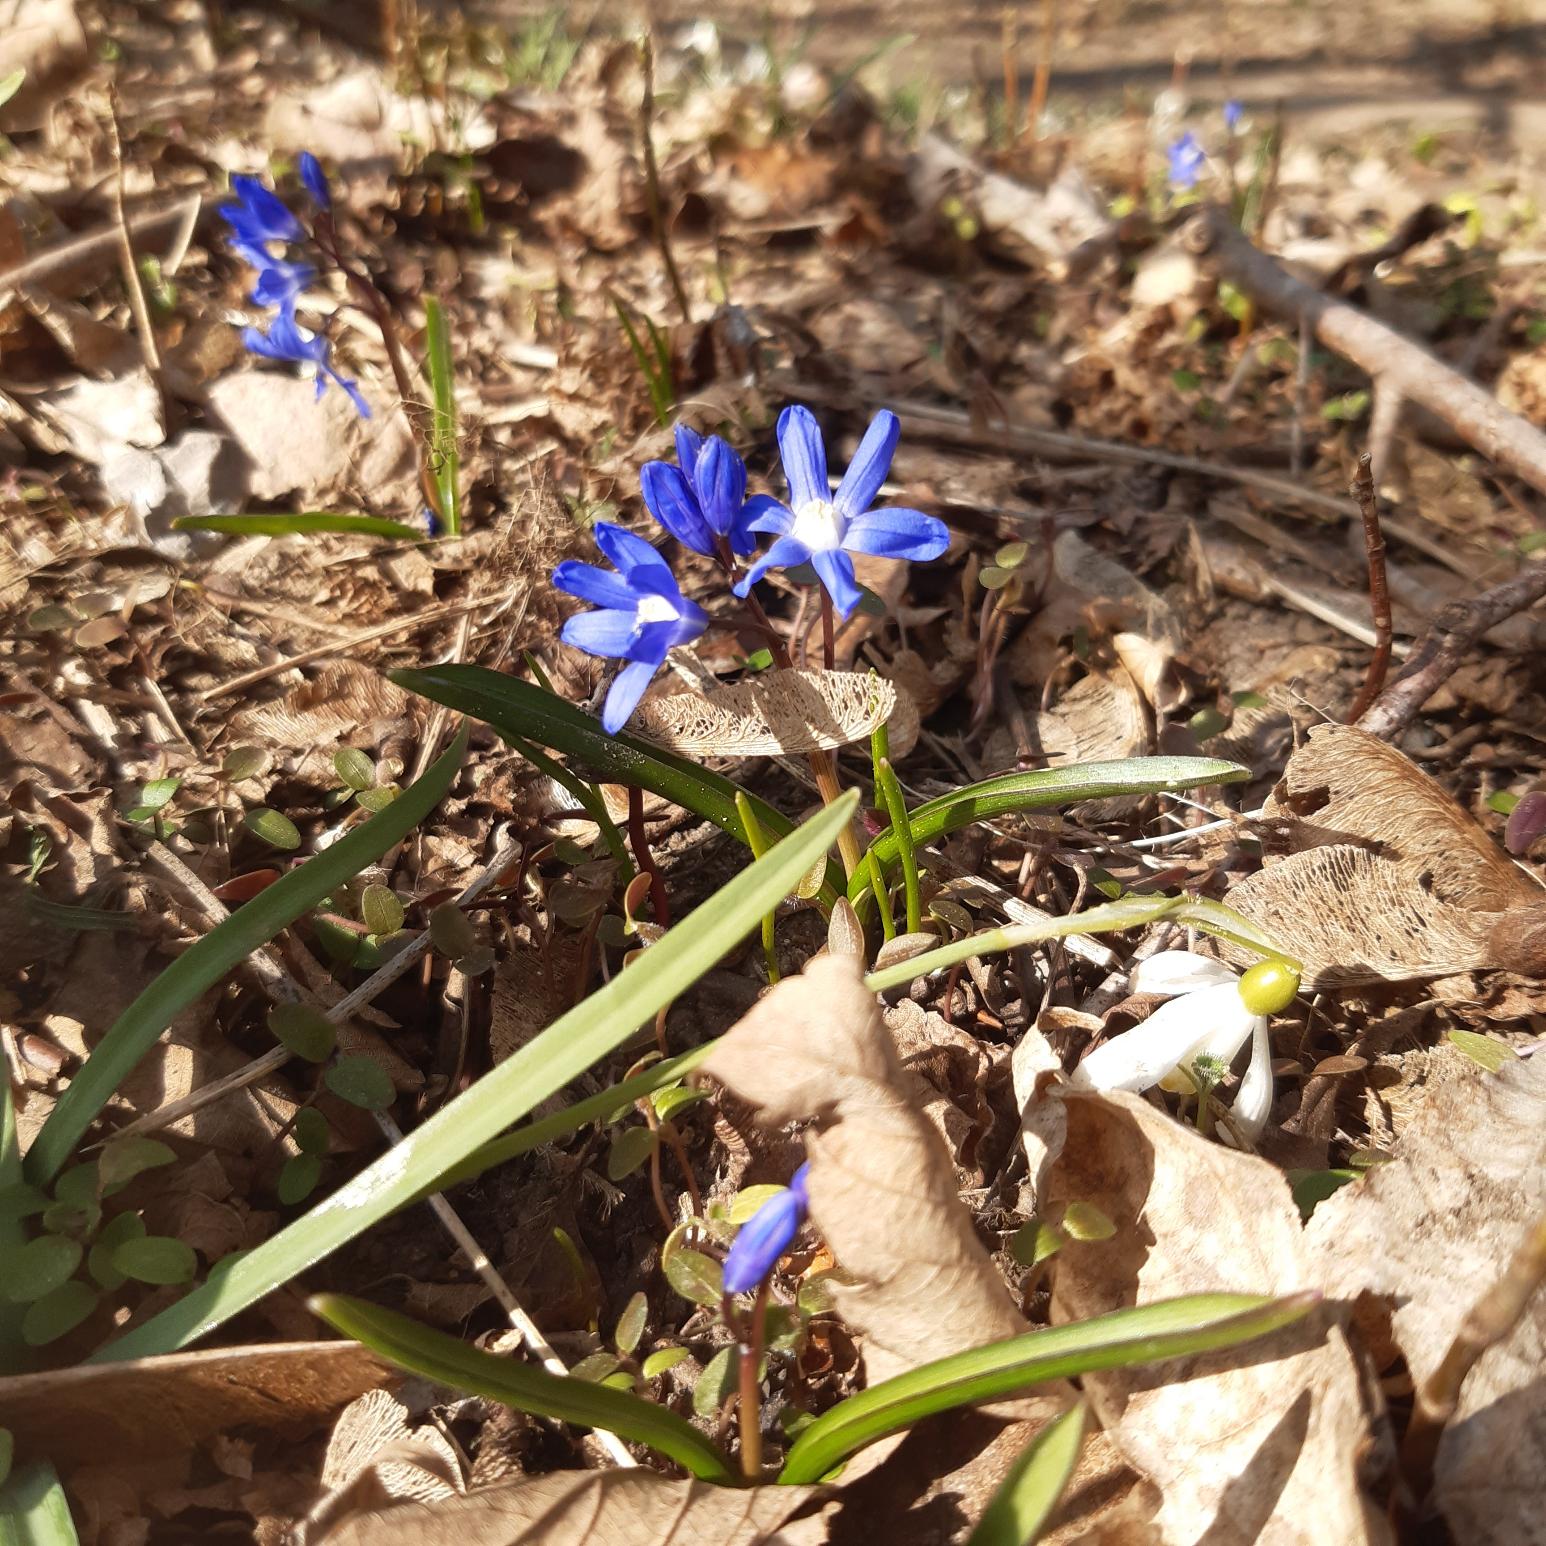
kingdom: Plantae
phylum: Tracheophyta
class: Liliopsida
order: Asparagales
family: Asparagaceae
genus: Scilla
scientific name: Scilla sardensis
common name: Liden snepryd
